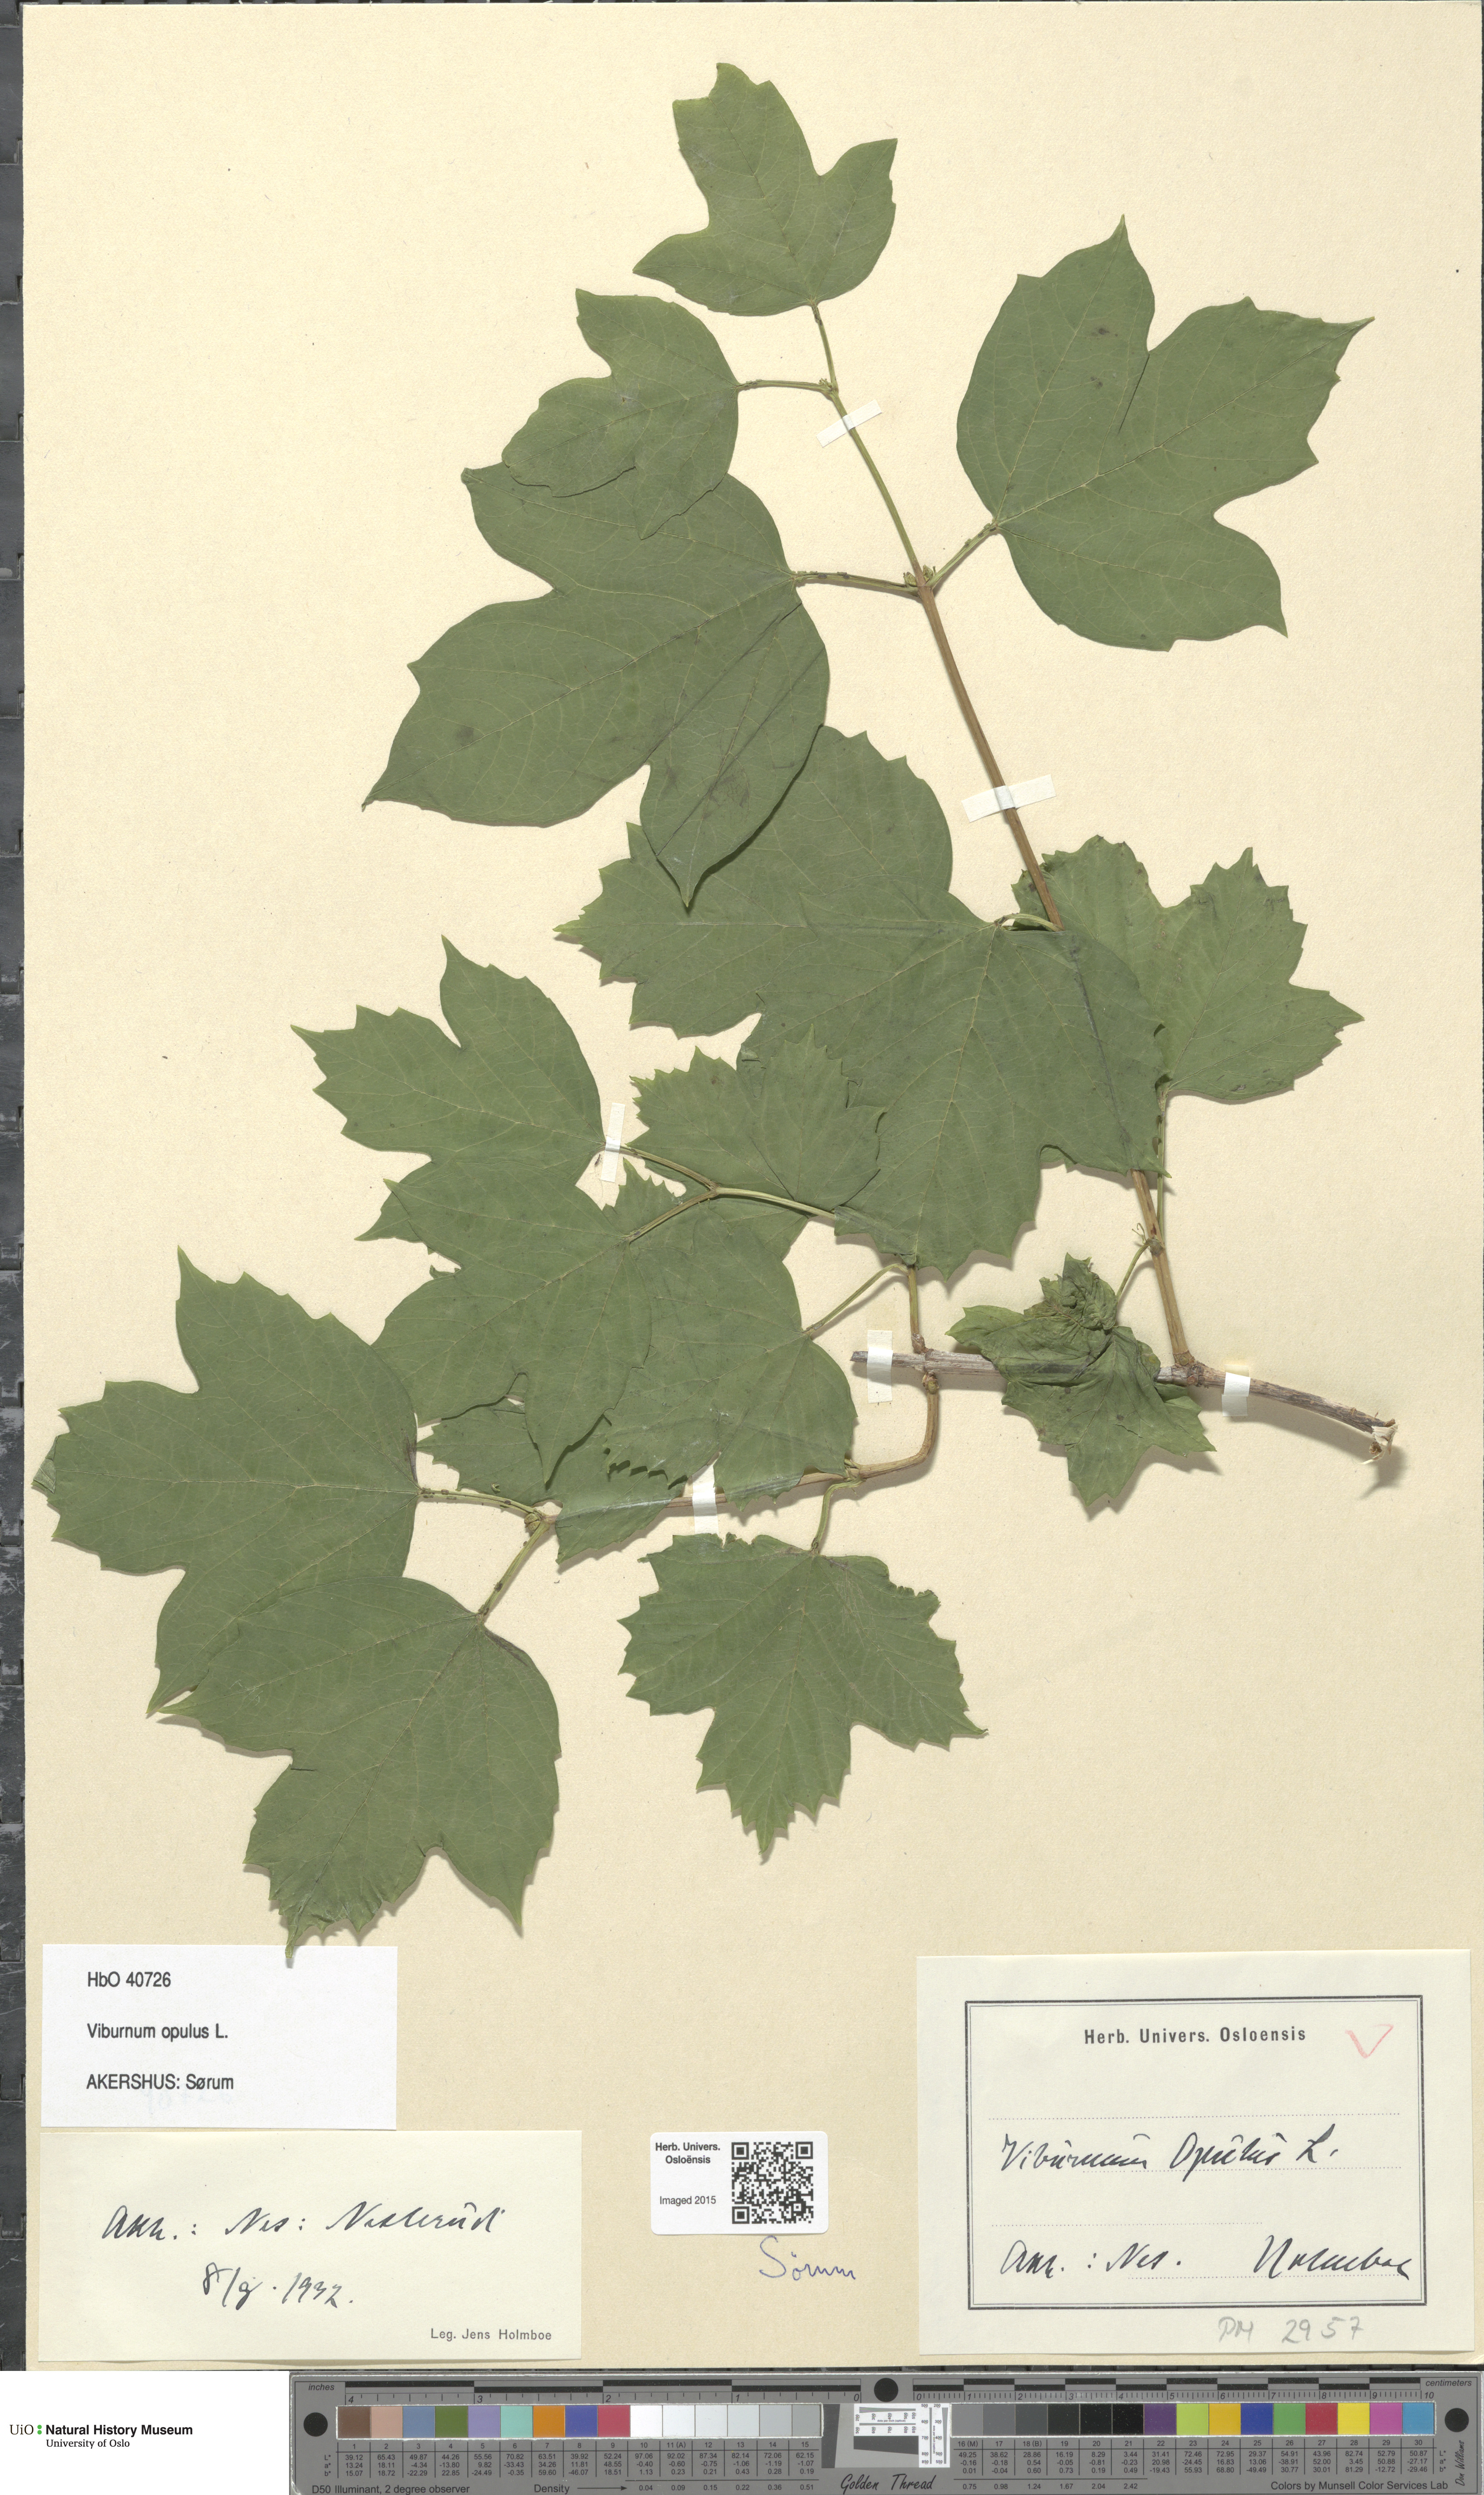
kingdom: Plantae
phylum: Tracheophyta
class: Magnoliopsida
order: Dipsacales
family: Viburnaceae
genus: Viburnum
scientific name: Viburnum opulus
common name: Guelder-rose
